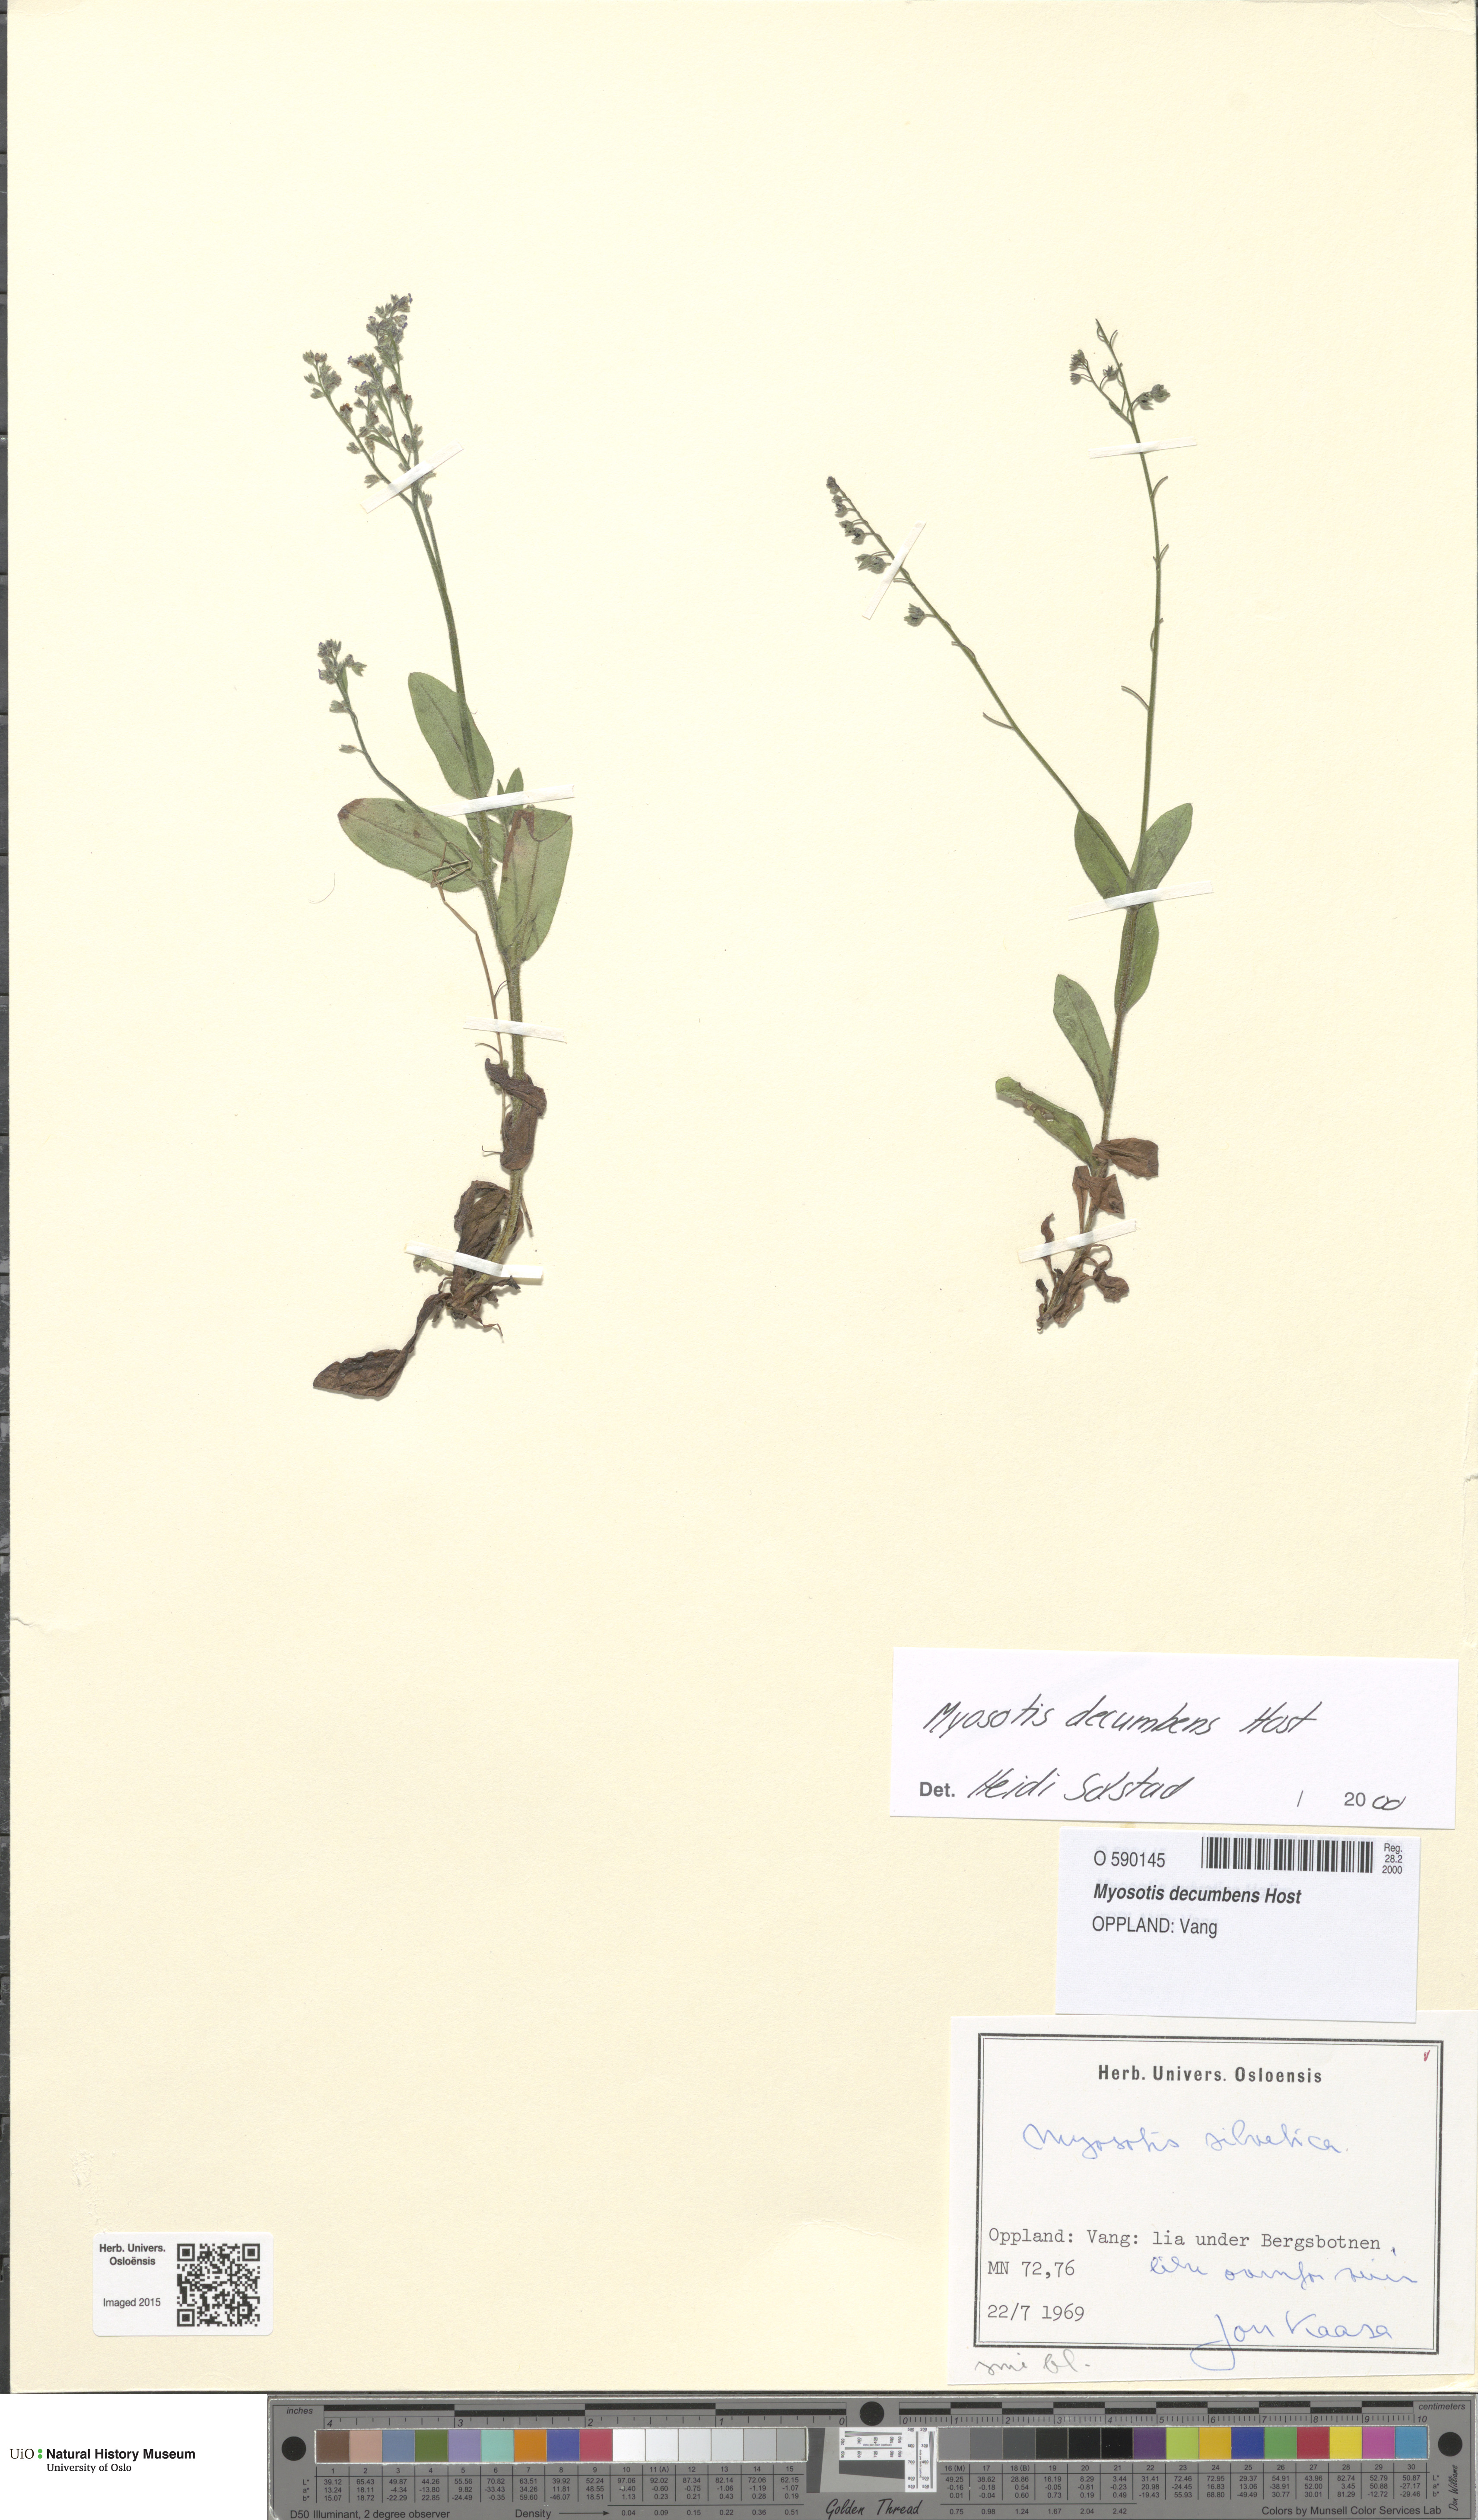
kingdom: Plantae
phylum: Tracheophyta
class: Magnoliopsida
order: Boraginales
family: Boraginaceae
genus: Myosotis
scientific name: Myosotis decumbens
